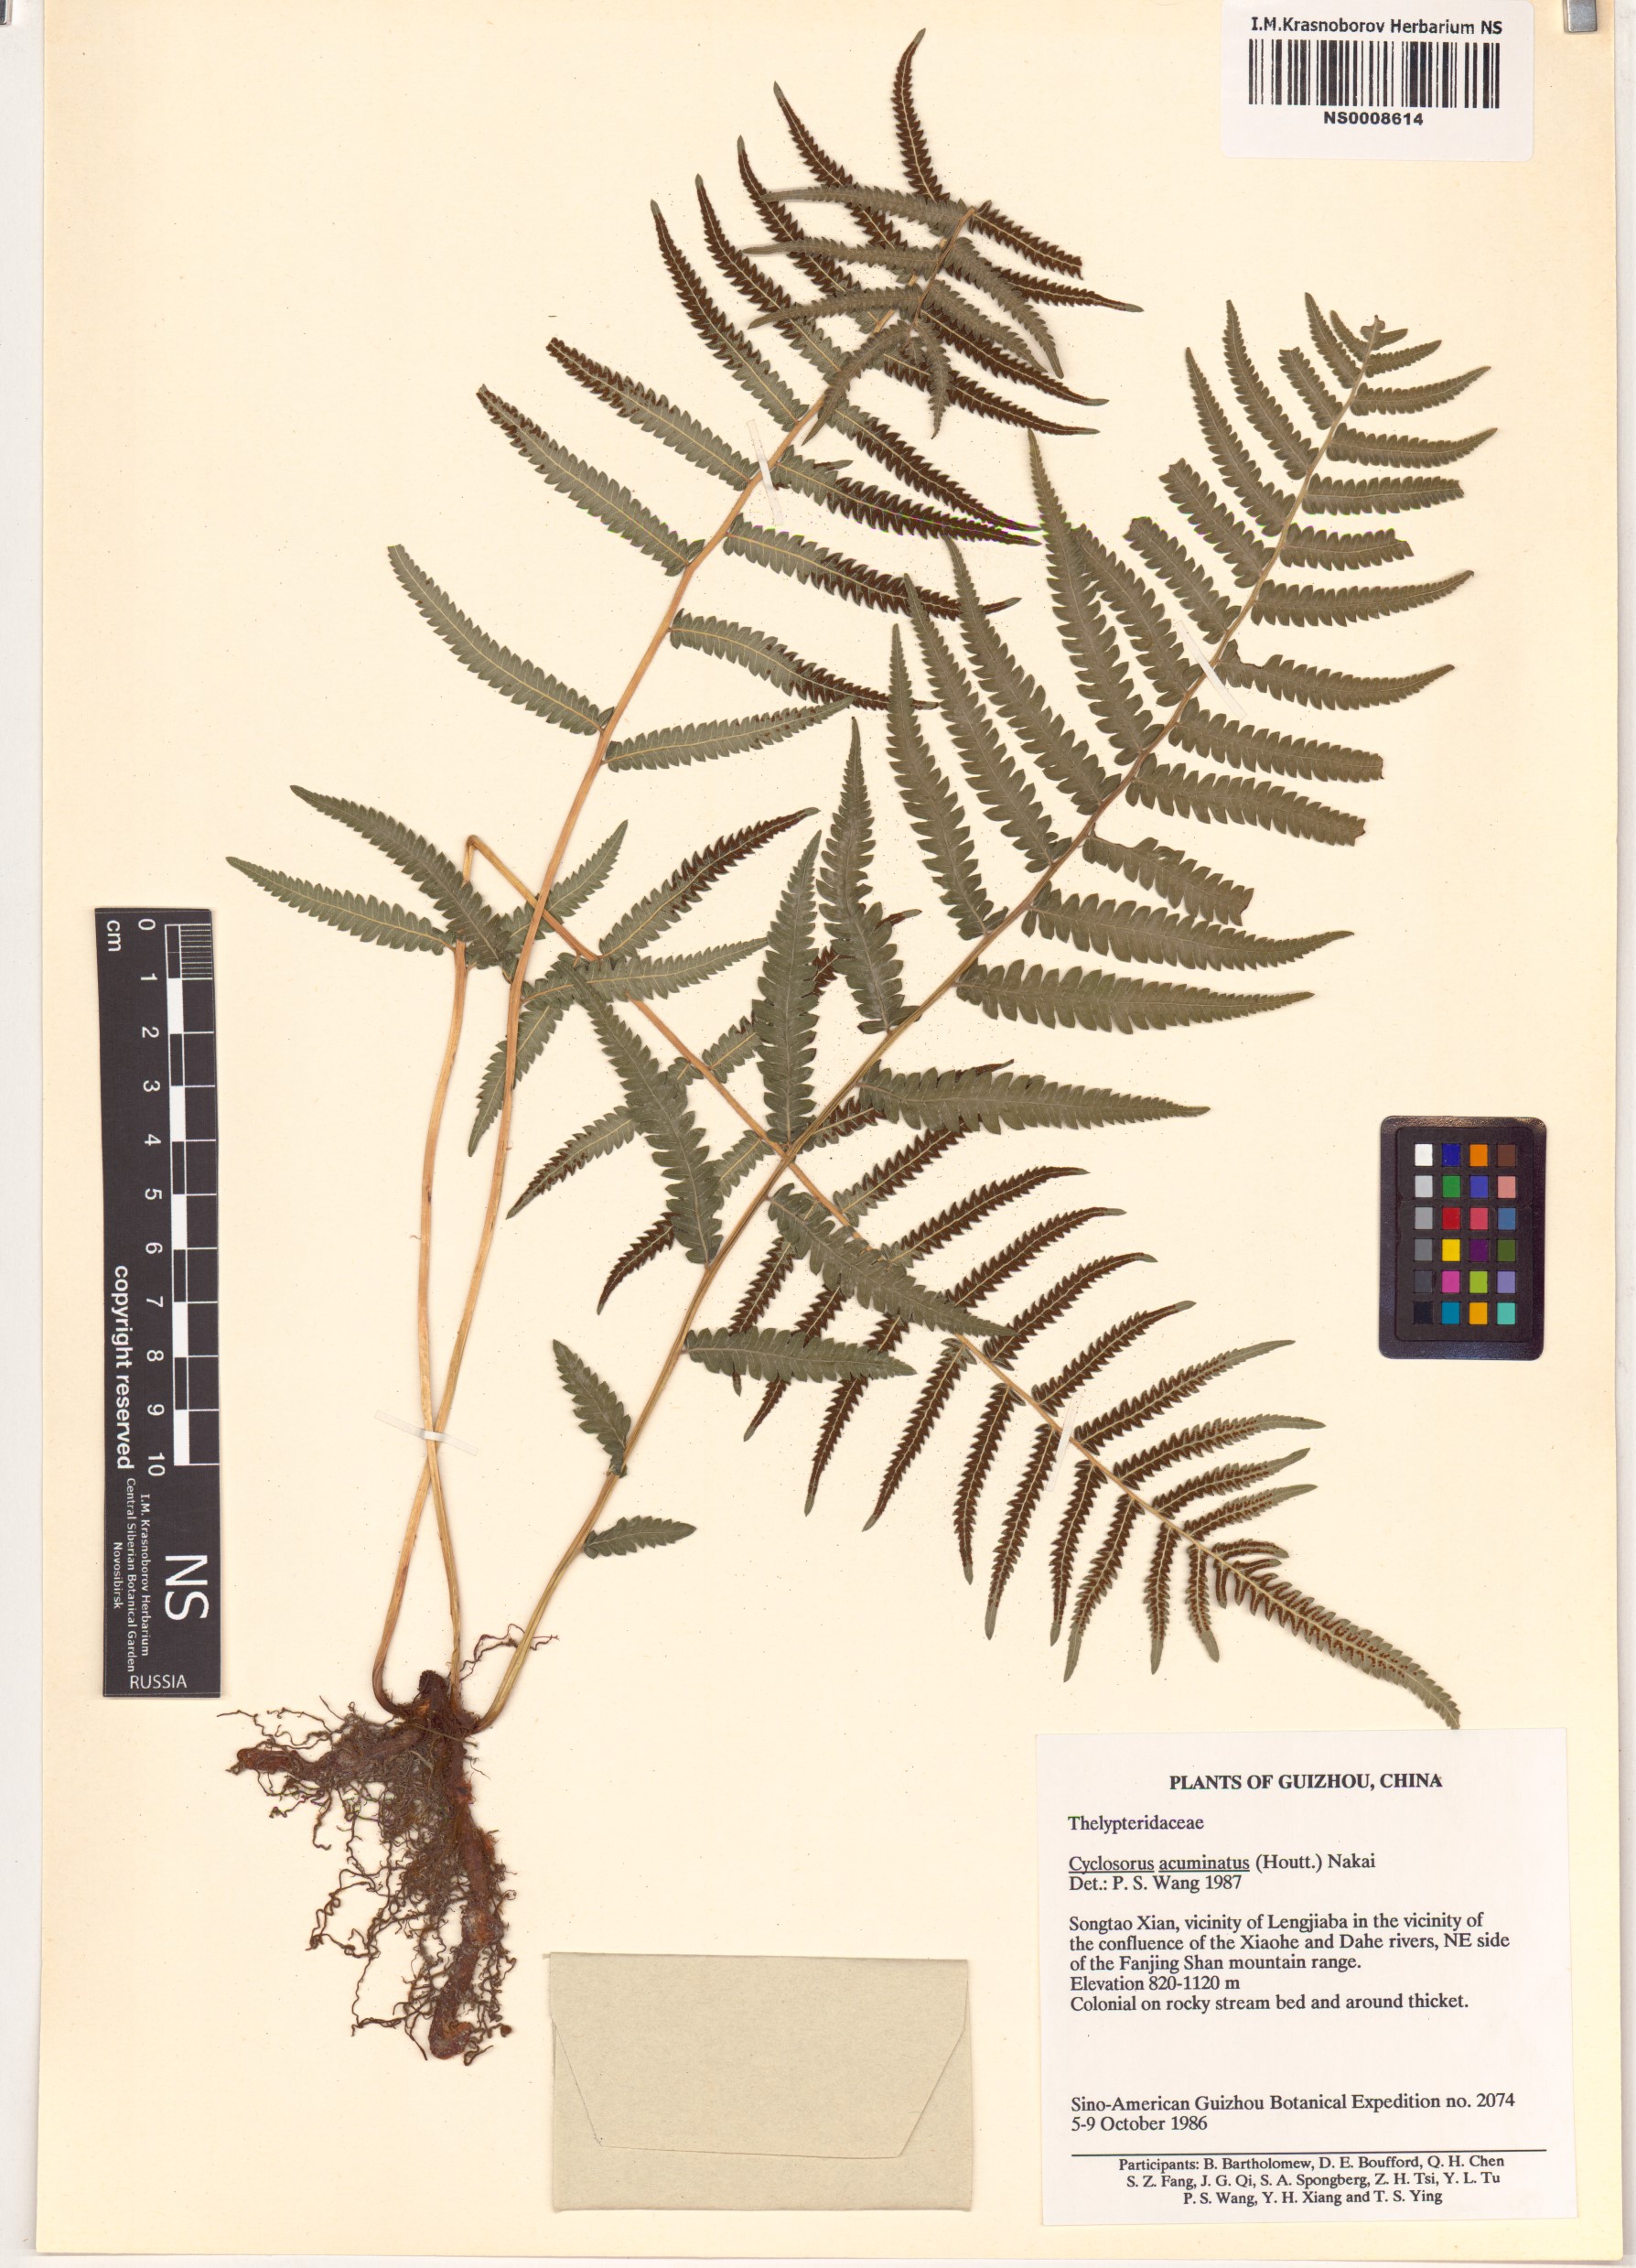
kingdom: Plantae
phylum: Tracheophyta
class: Polypodiopsida
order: Polypodiales
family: Thelypteridaceae
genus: Christella
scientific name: Christella acuminata
